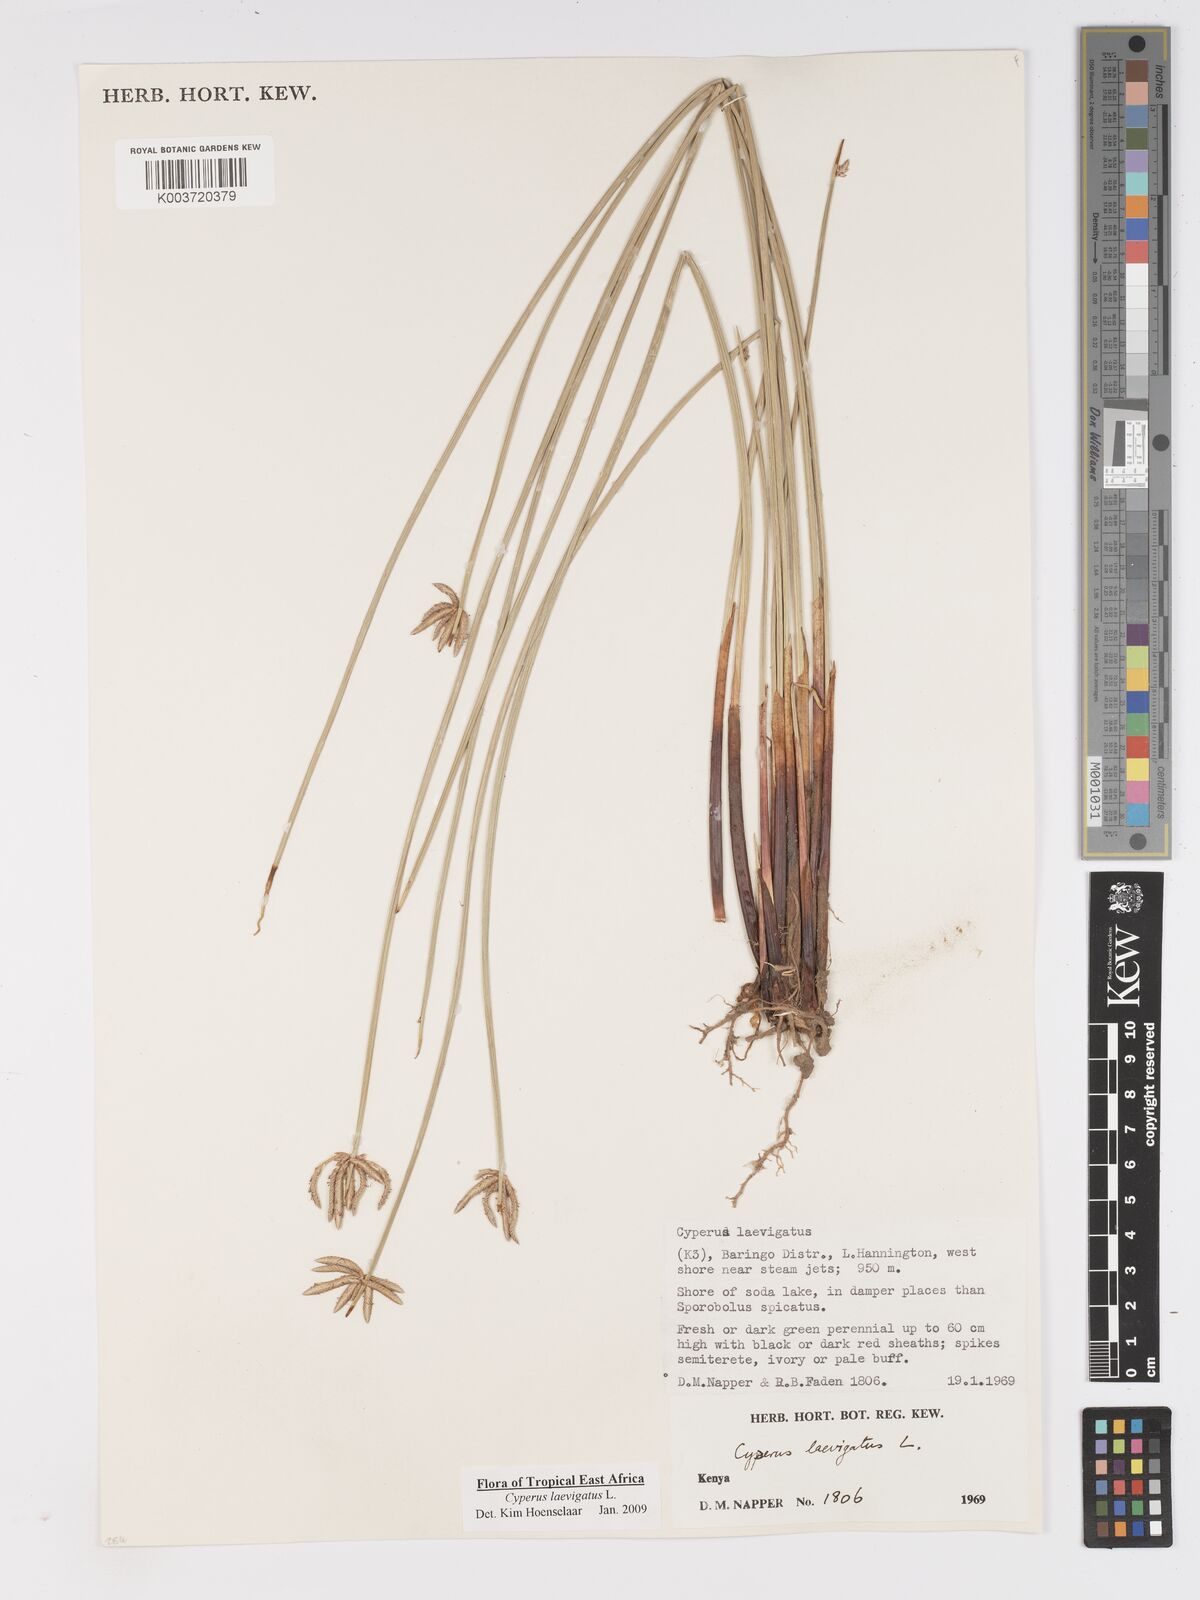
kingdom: Plantae
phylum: Tracheophyta
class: Liliopsida
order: Poales
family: Cyperaceae
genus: Cyperus
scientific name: Cyperus laevigatus
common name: Smooth flat sedge
